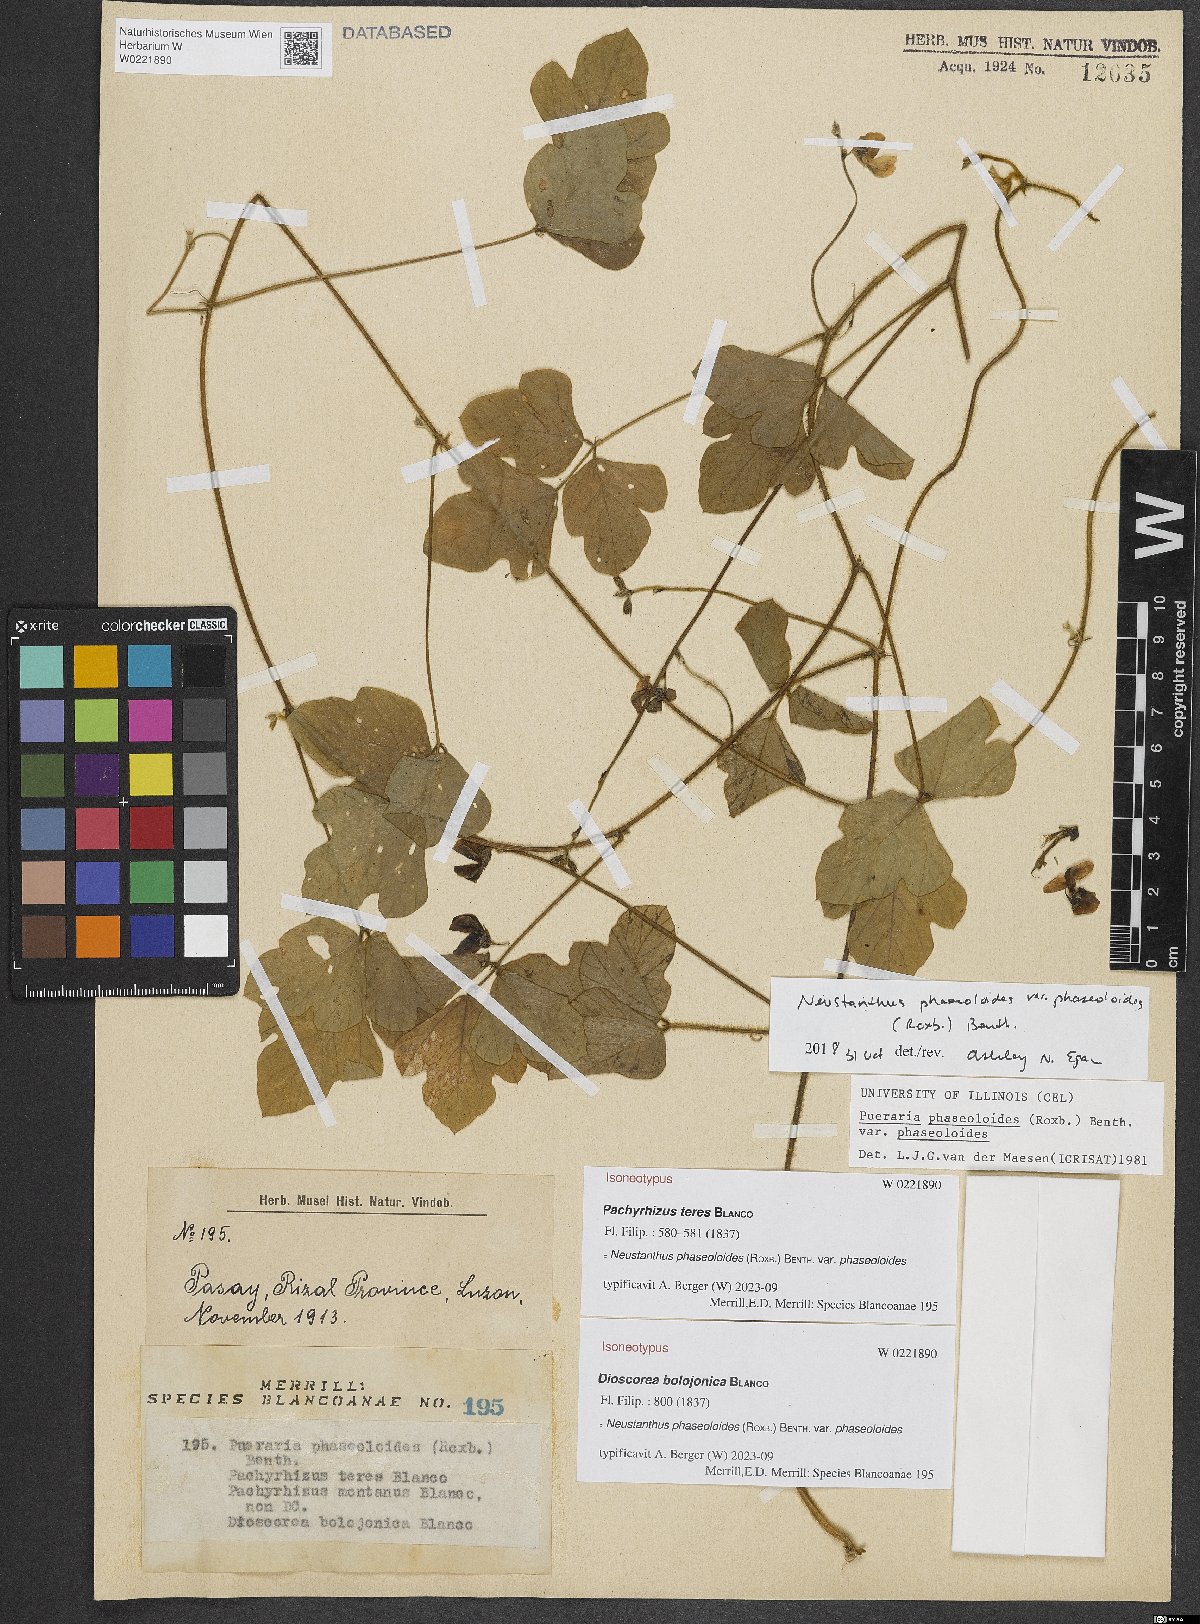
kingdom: Plantae
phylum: Tracheophyta
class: Magnoliopsida
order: Fabales
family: Fabaceae
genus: Neustanthus
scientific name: Neustanthus phaseoloides
